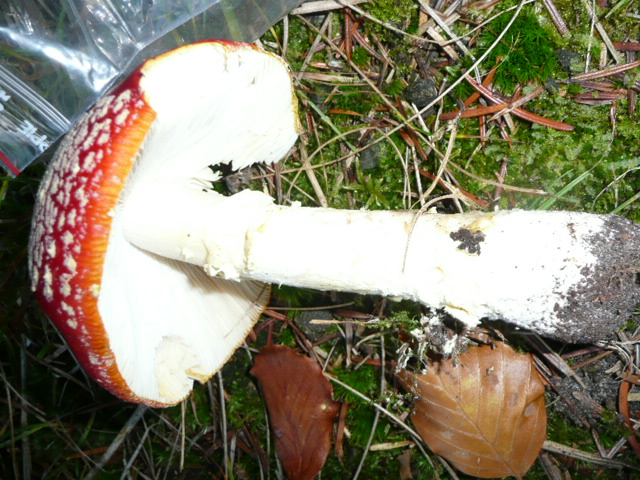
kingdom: Fungi
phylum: Basidiomycota
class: Agaricomycetes
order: Agaricales
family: Amanitaceae
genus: Amanita
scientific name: Amanita muscaria
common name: rød fluesvamp
